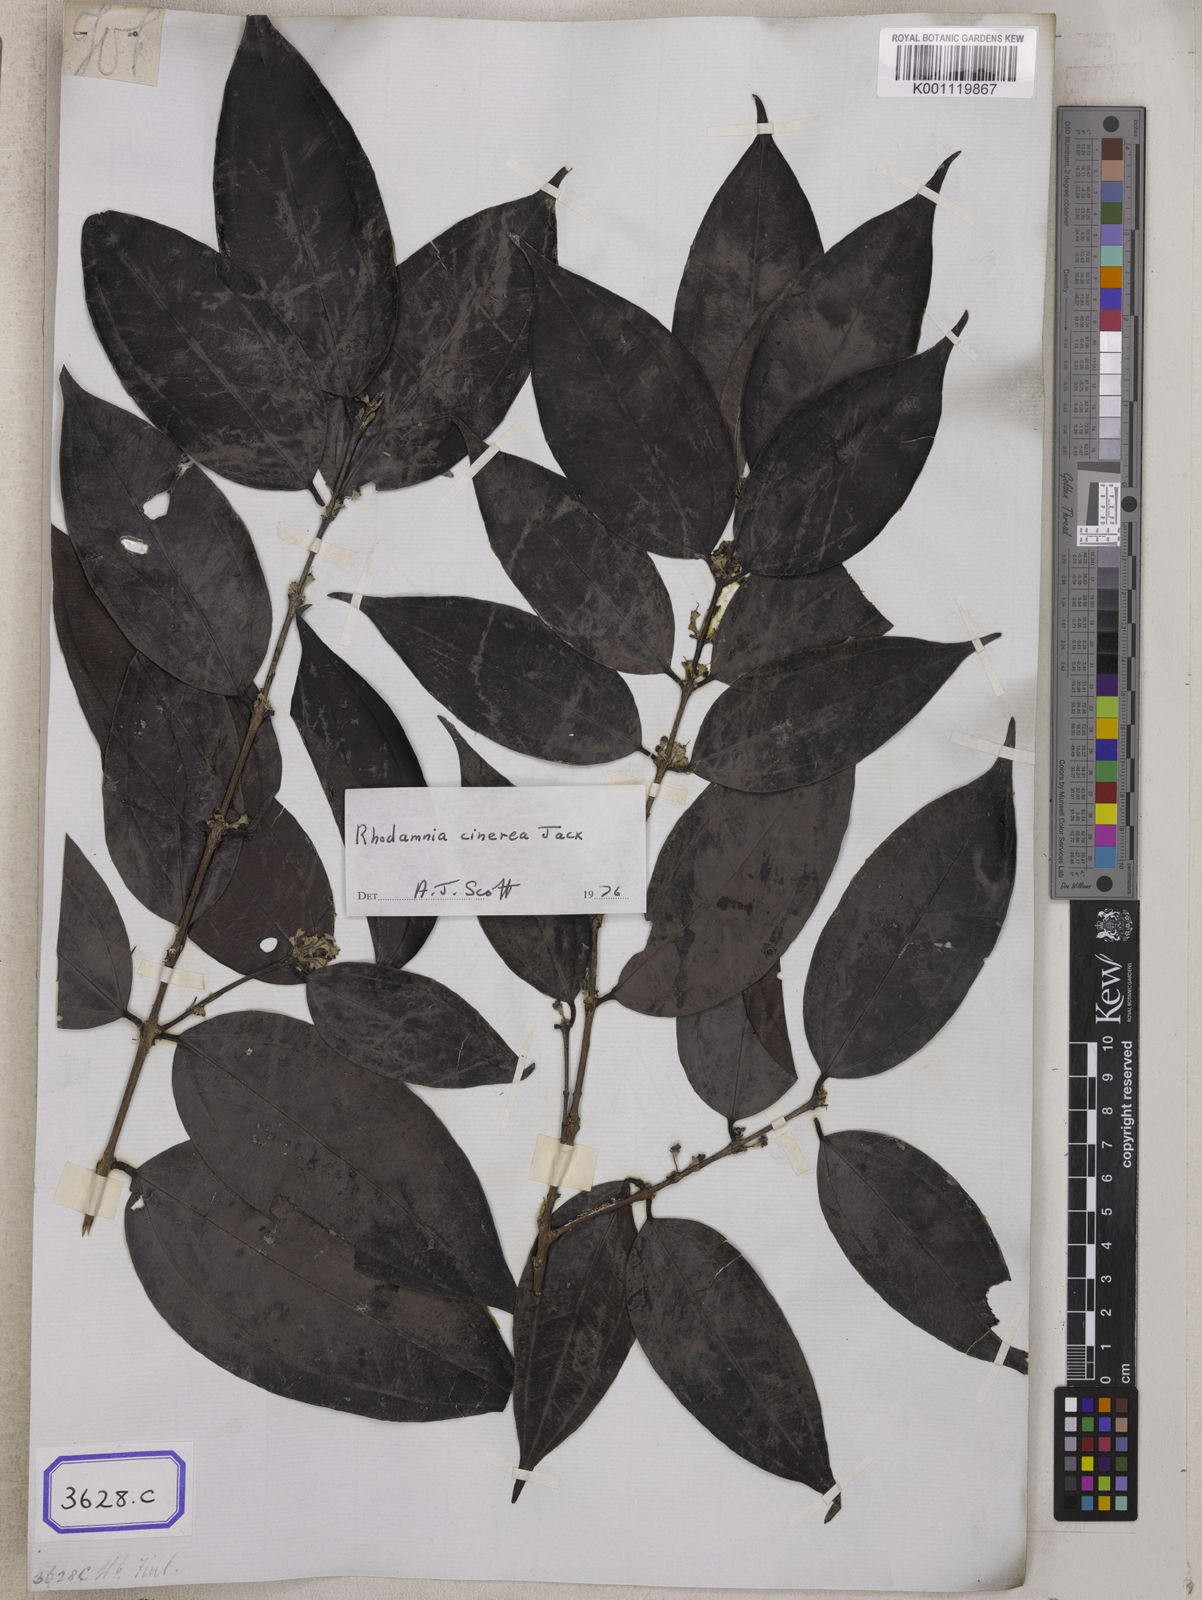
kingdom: Plantae
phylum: Tracheophyta
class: Magnoliopsida
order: Myrtales
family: Myrtaceae
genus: Rhodamnia
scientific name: Rhodamnia cinerea
